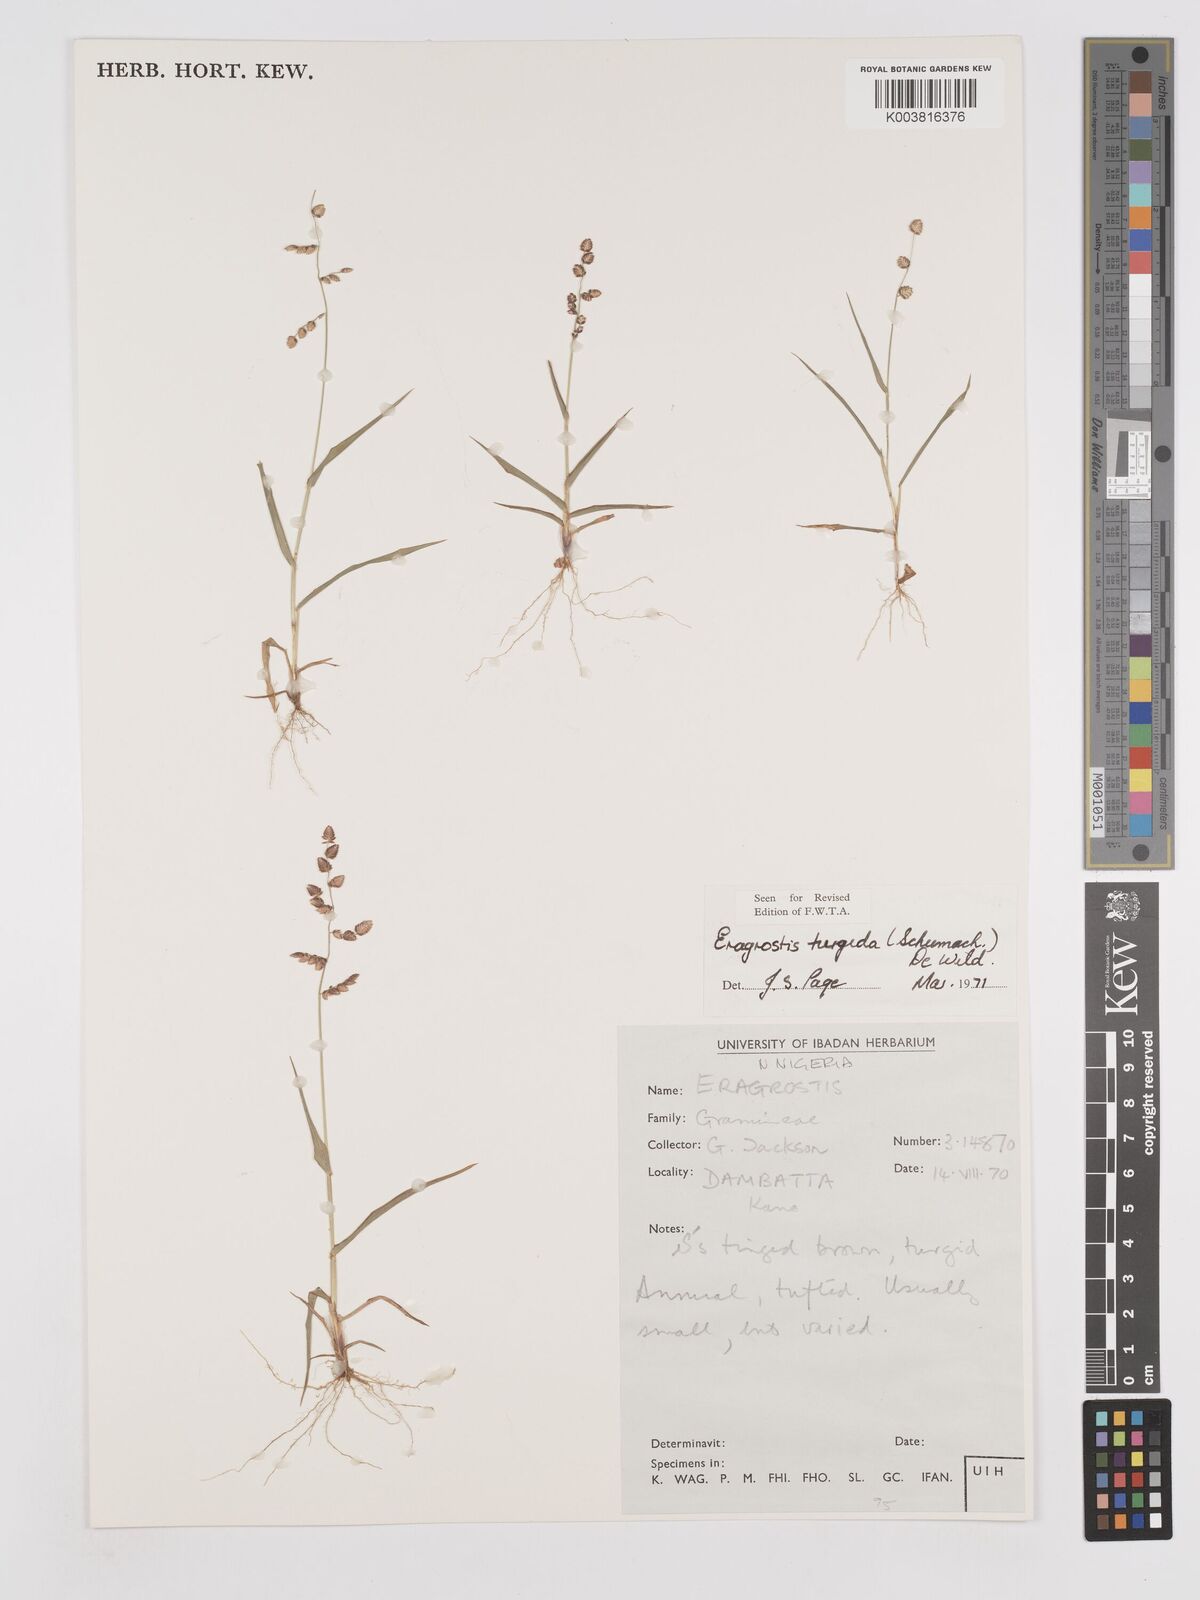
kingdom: Plantae
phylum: Tracheophyta
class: Liliopsida
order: Poales
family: Poaceae
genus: Eragrostis
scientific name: Eragrostis turgida
